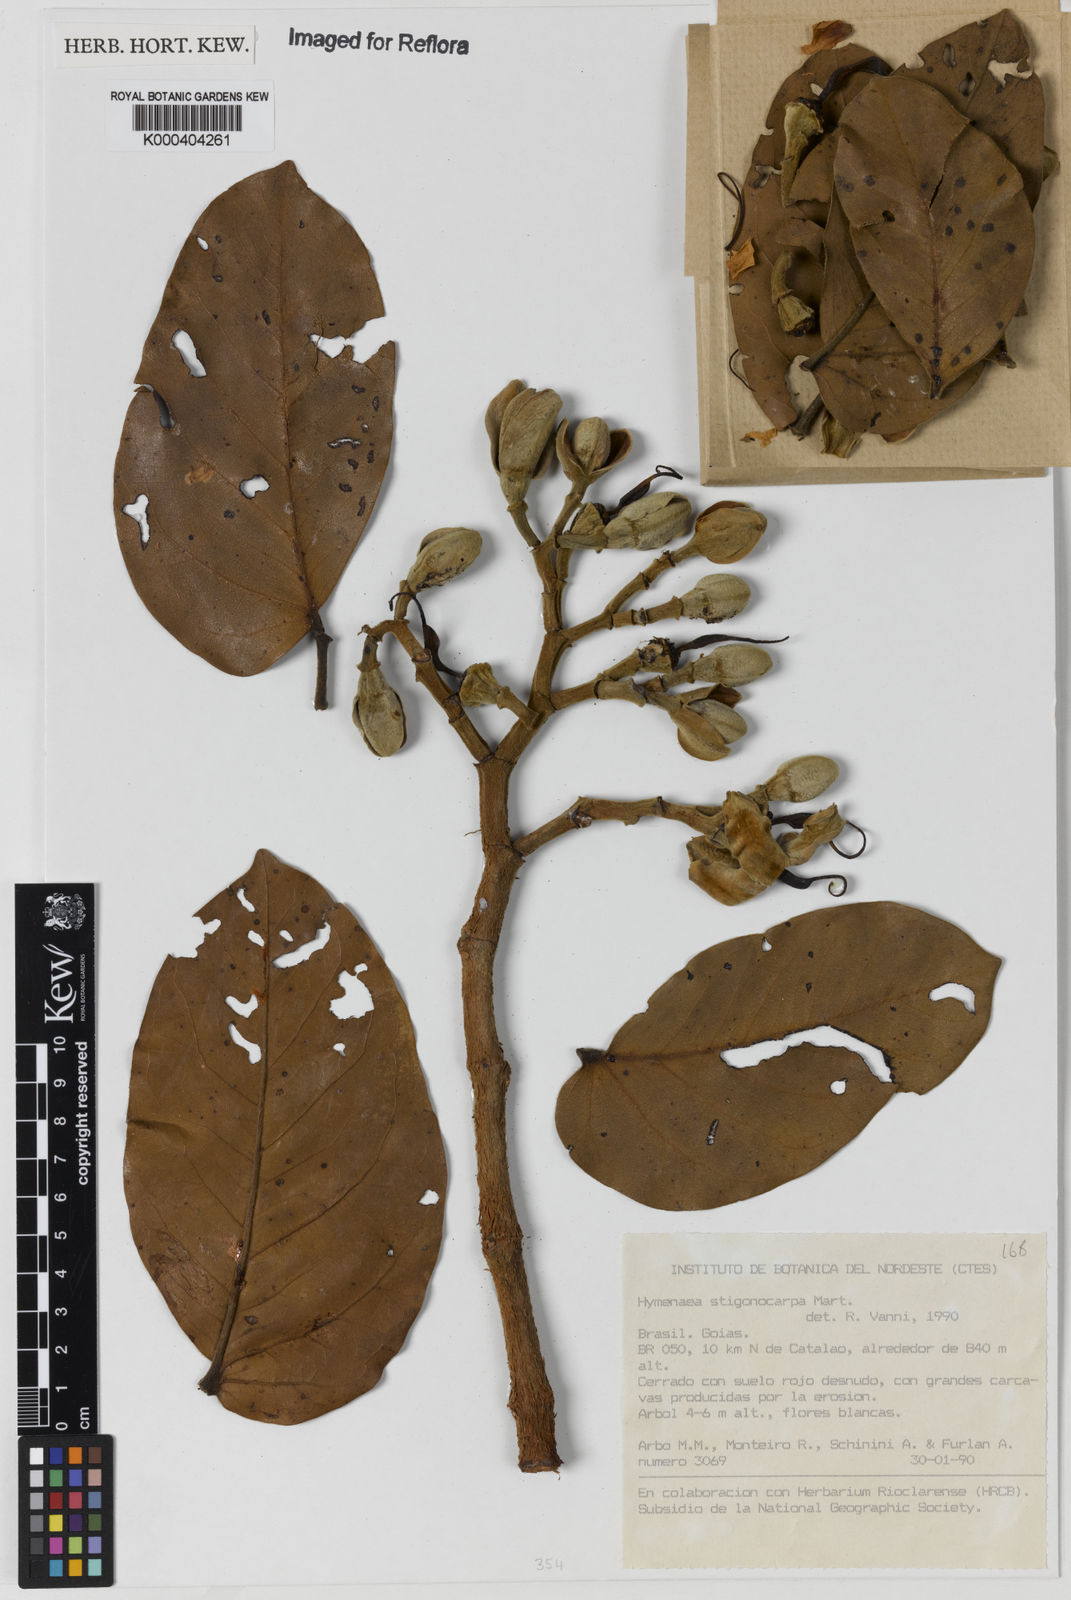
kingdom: Plantae
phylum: Tracheophyta
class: Magnoliopsida
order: Fabales
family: Fabaceae
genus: Hymenaea
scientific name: Hymenaea stigonocarpa
